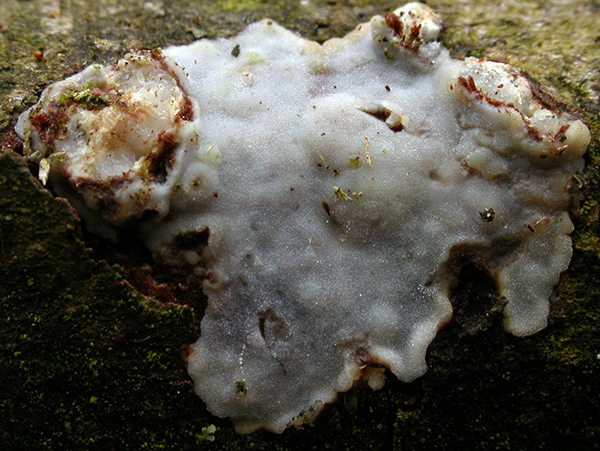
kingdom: Fungi
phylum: Basidiomycota
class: Agaricomycetes
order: Corticiales
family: Vuilleminiaceae
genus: Vuilleminia
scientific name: Vuilleminia
